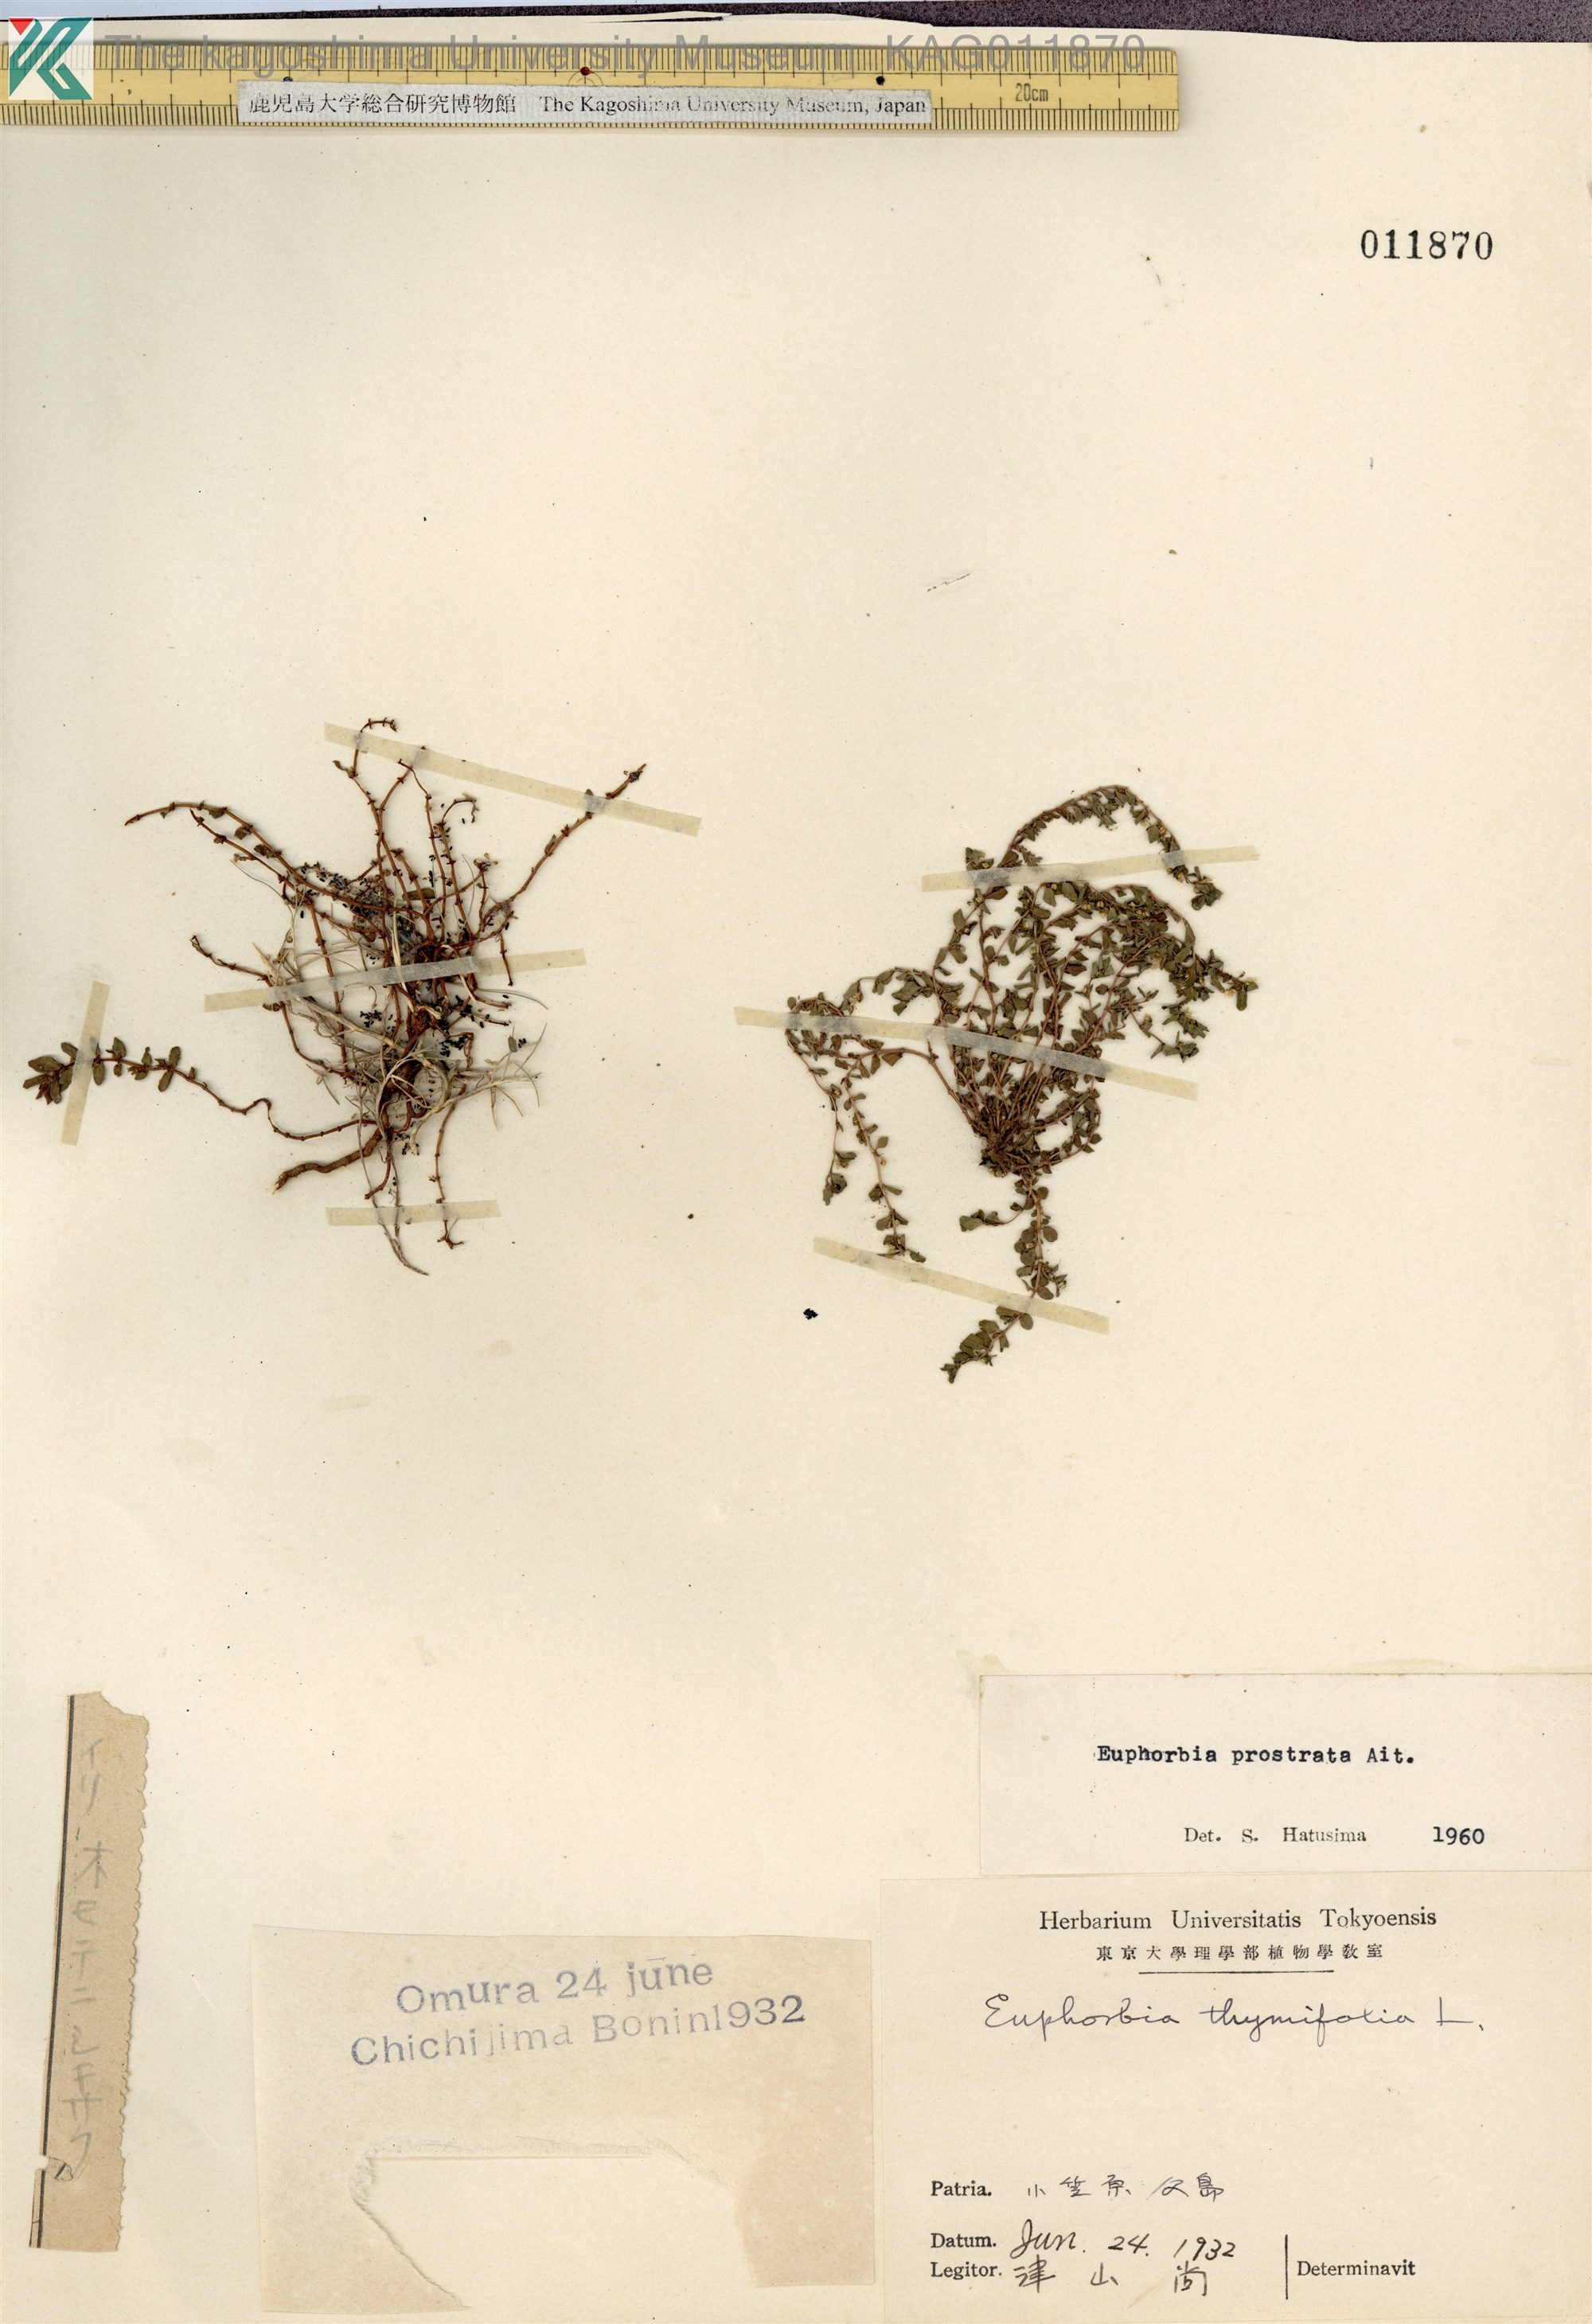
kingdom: Plantae
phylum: Tracheophyta
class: Magnoliopsida
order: Malpighiales
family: Euphorbiaceae
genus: Euphorbia
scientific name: Euphorbia prostrata
